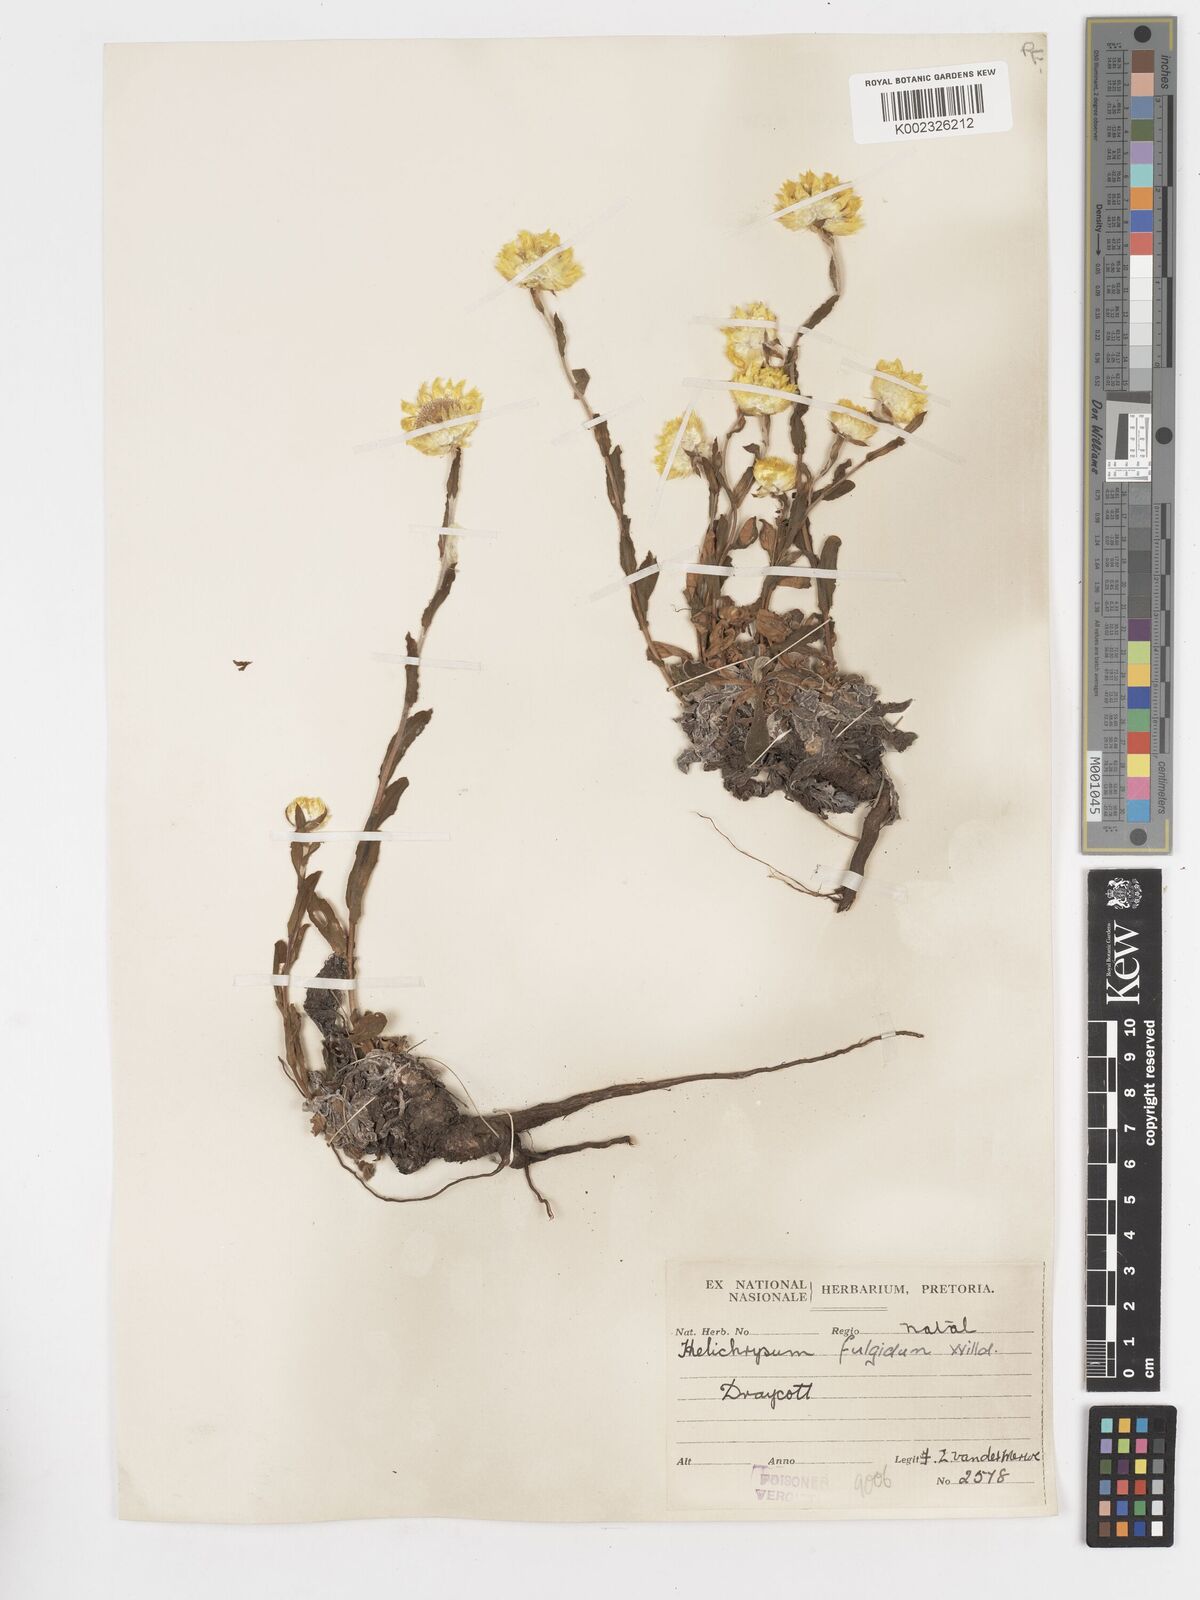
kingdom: Plantae
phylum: Tracheophyta
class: Magnoliopsida
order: Asterales
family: Asteraceae
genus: Helichrysum
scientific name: Helichrysum aureum
